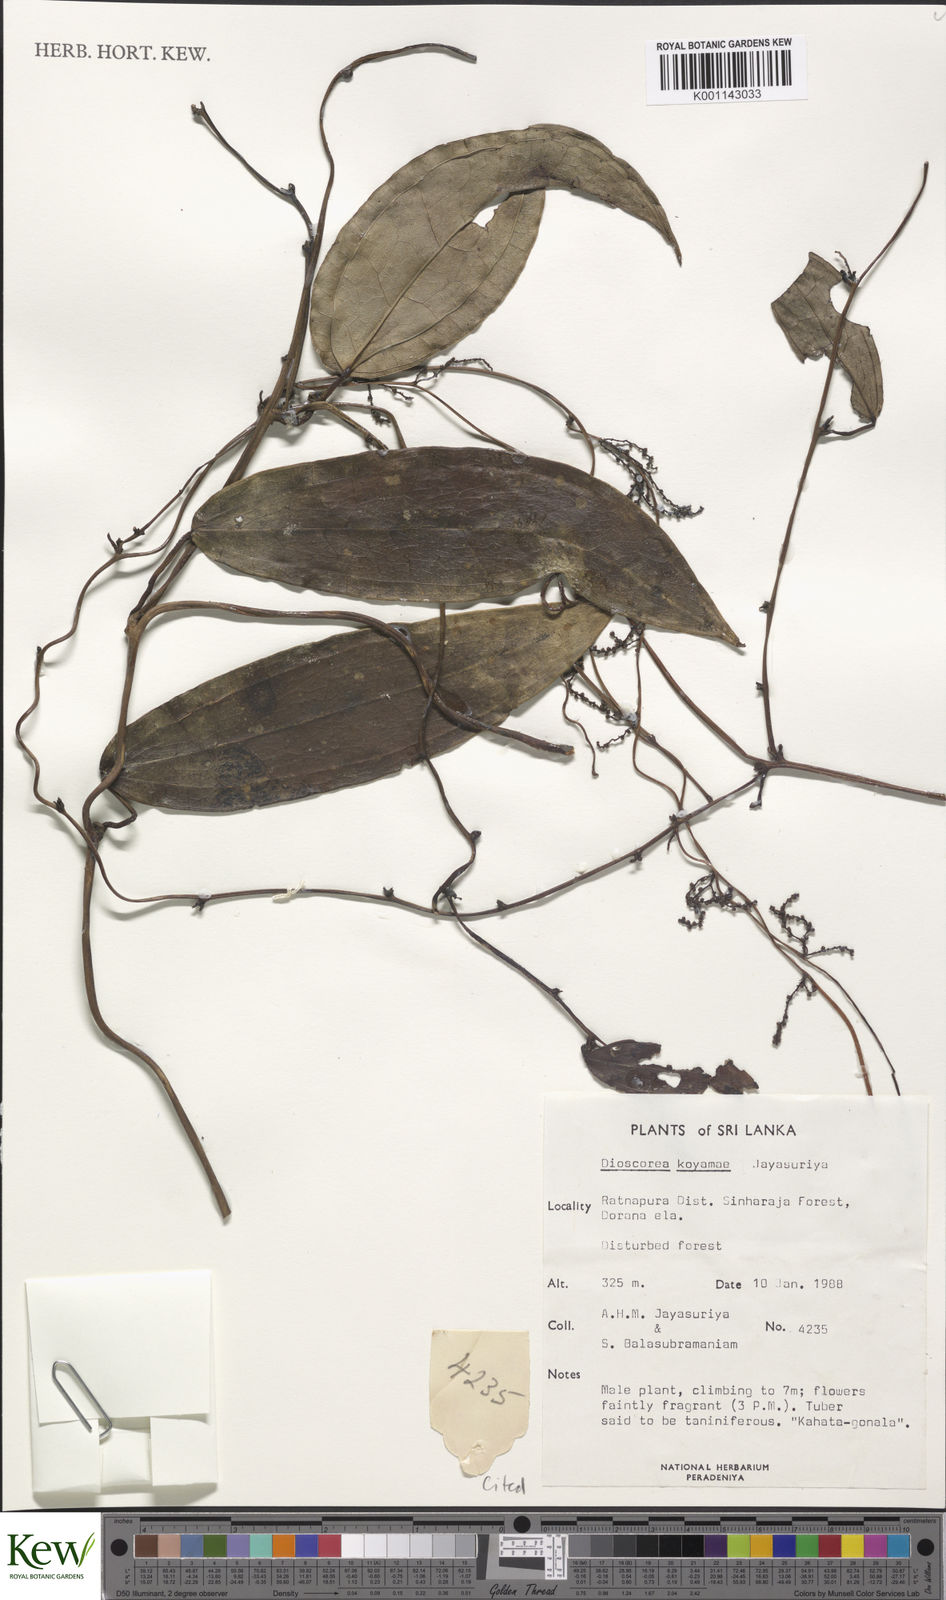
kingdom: Plantae
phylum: Tracheophyta
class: Liliopsida
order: Dioscoreales
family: Dioscoreaceae
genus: Dioscorea
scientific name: Dioscorea koyamae
